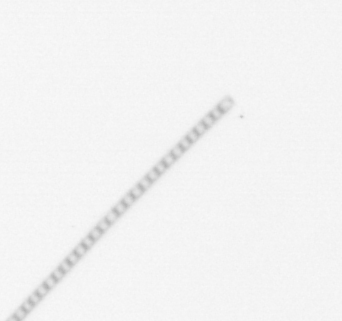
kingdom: Chromista
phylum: Ochrophyta
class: Bacillariophyceae
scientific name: Bacillariophyceae
